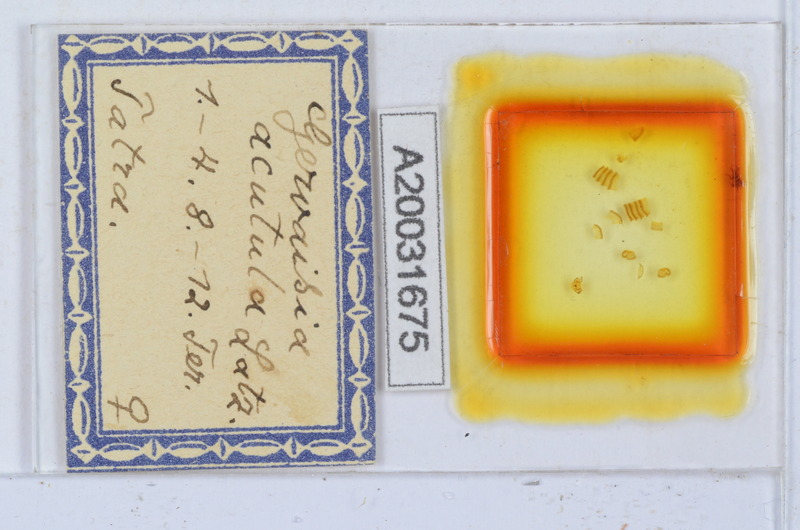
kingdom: Animalia
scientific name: Animalia
